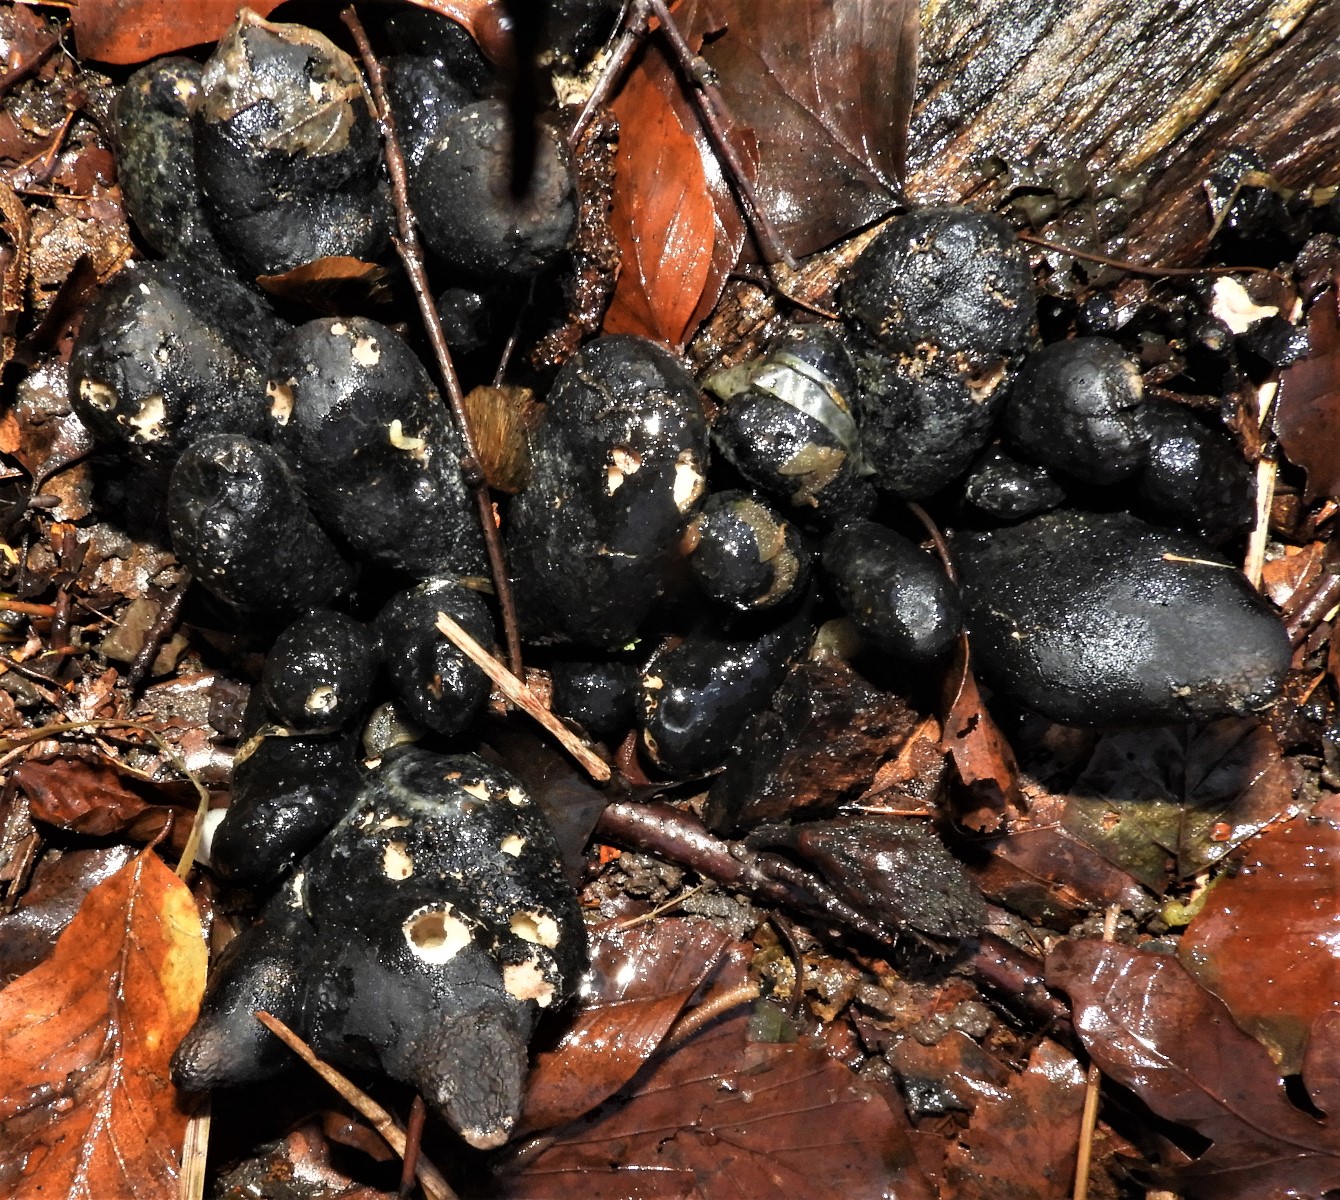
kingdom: Fungi
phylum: Ascomycota
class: Sordariomycetes
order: Xylariales
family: Xylariaceae
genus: Xylaria
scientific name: Xylaria polymorpha
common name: kølle-stødsvamp
